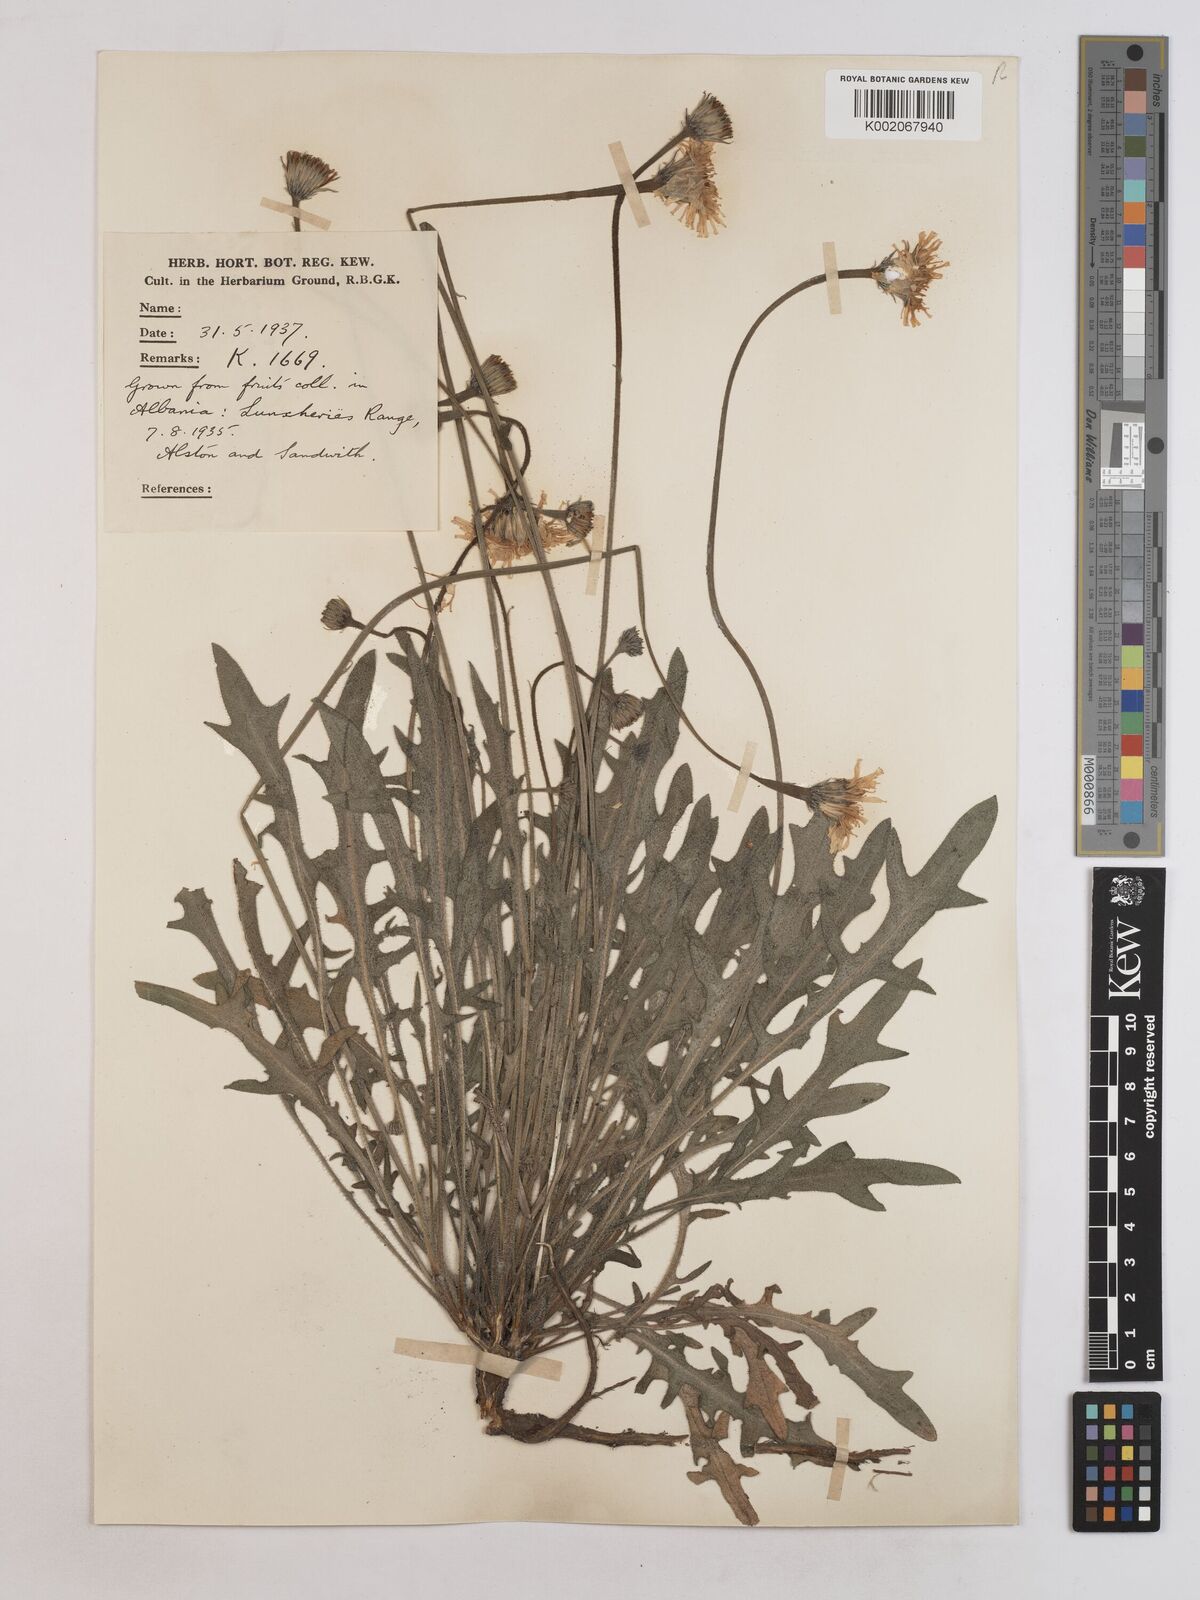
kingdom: Plantae
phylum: Tracheophyta
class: Magnoliopsida
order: Asterales
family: Asteraceae
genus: Leontodon
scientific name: Leontodon crispus
